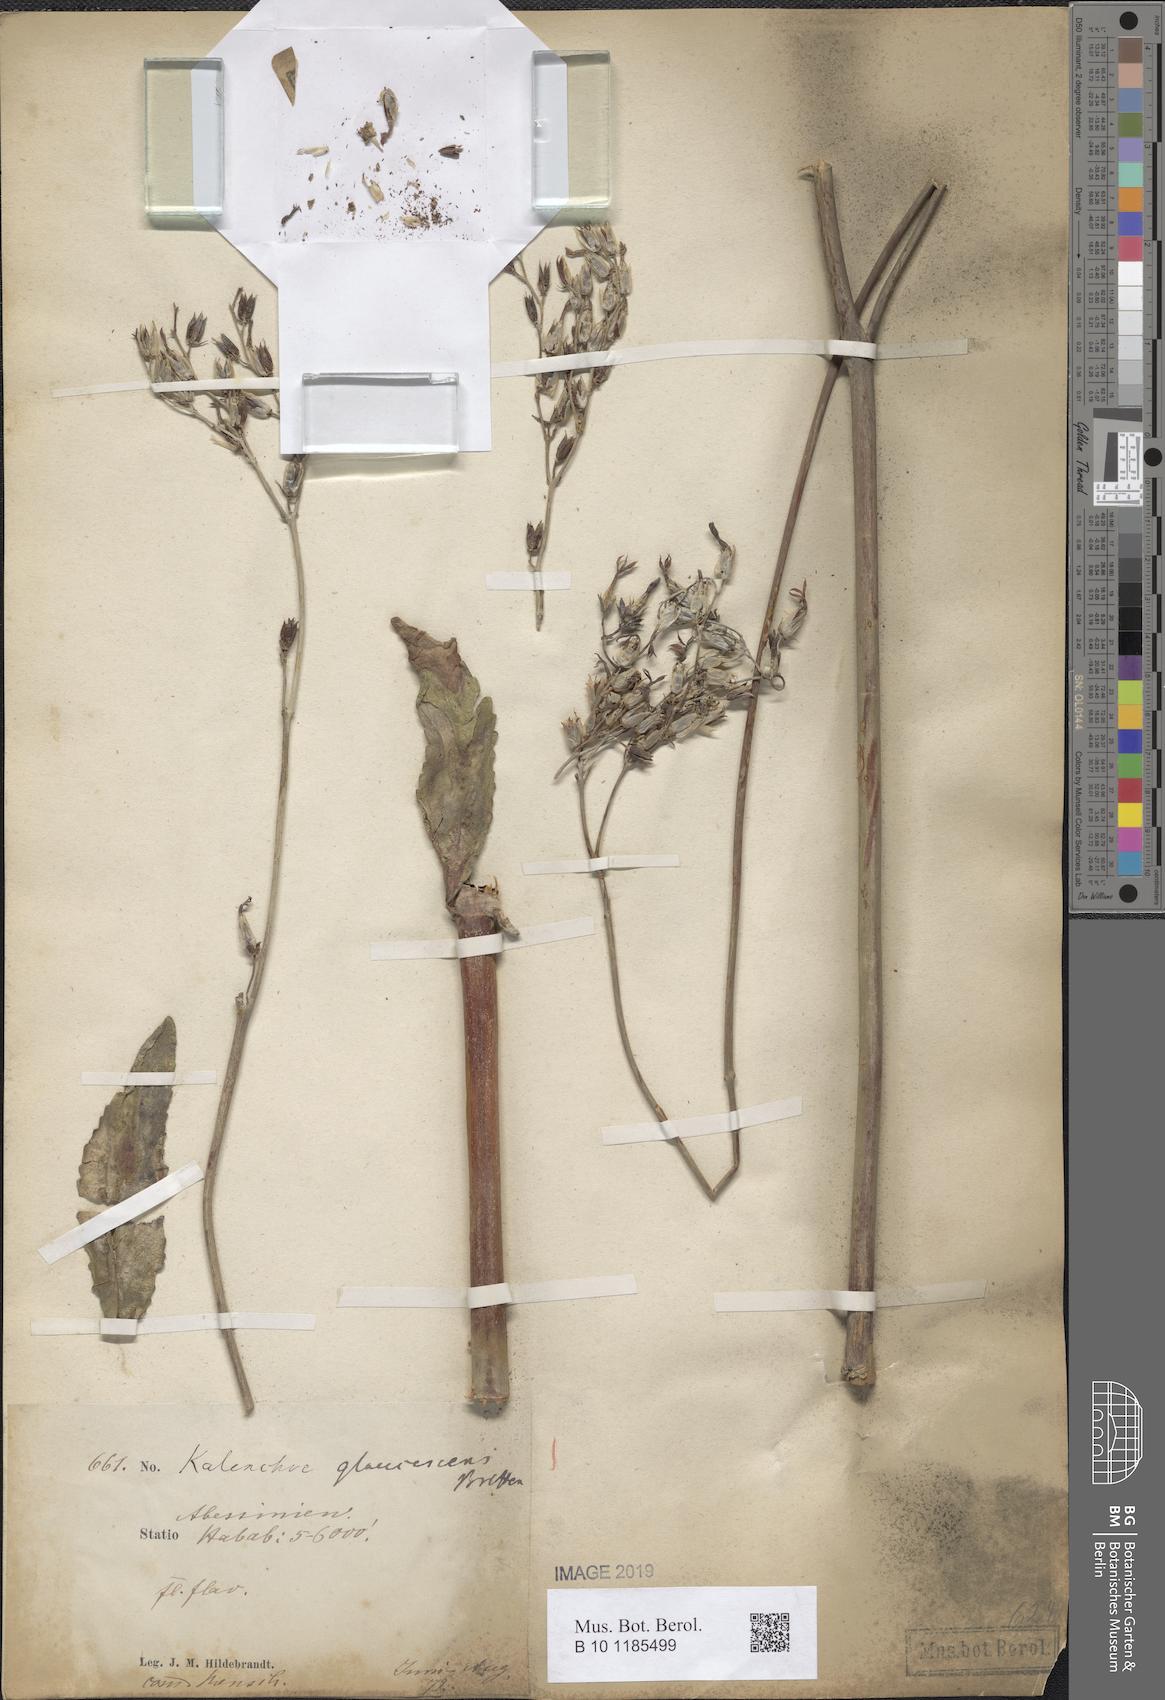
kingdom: Plantae
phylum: Tracheophyta
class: Magnoliopsida
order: Saxifragales
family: Crassulaceae
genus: Kalanchoe
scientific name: Kalanchoe glaucescens
